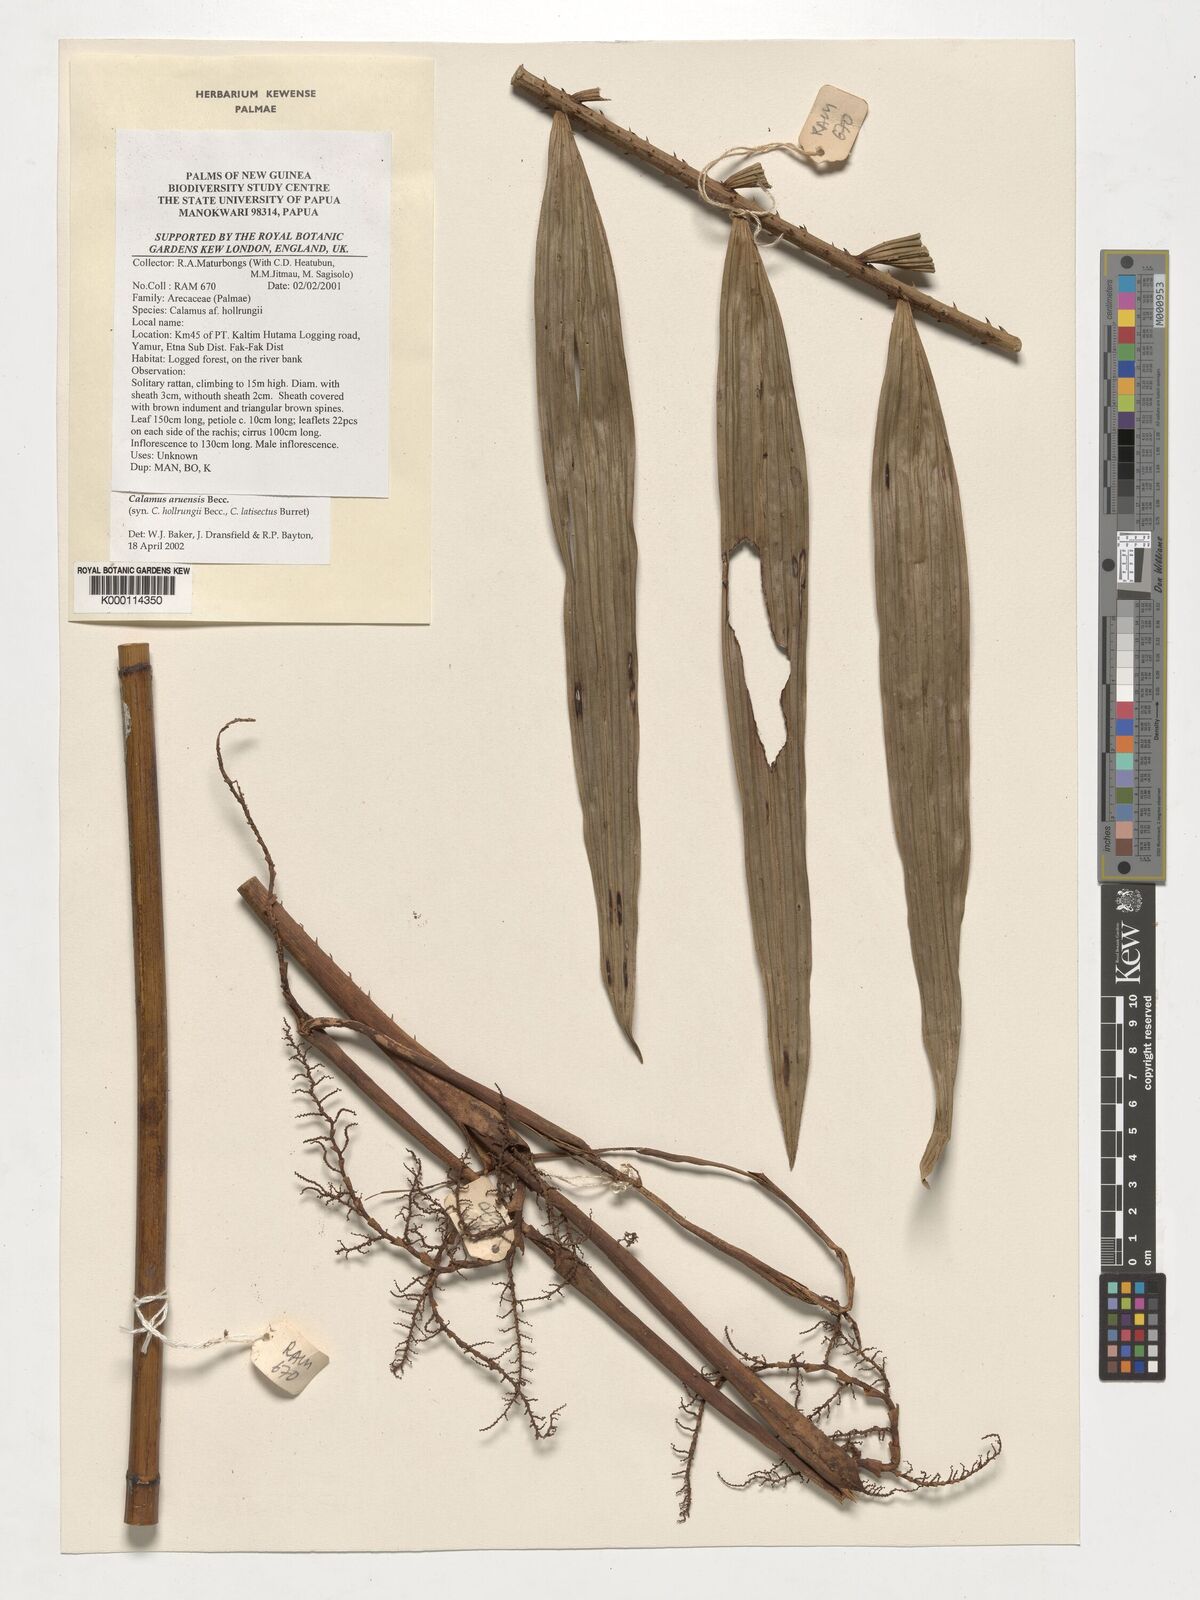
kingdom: Plantae
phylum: Tracheophyta
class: Liliopsida
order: Arecales
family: Arecaceae
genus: Calamus
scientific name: Calamus aruensis
